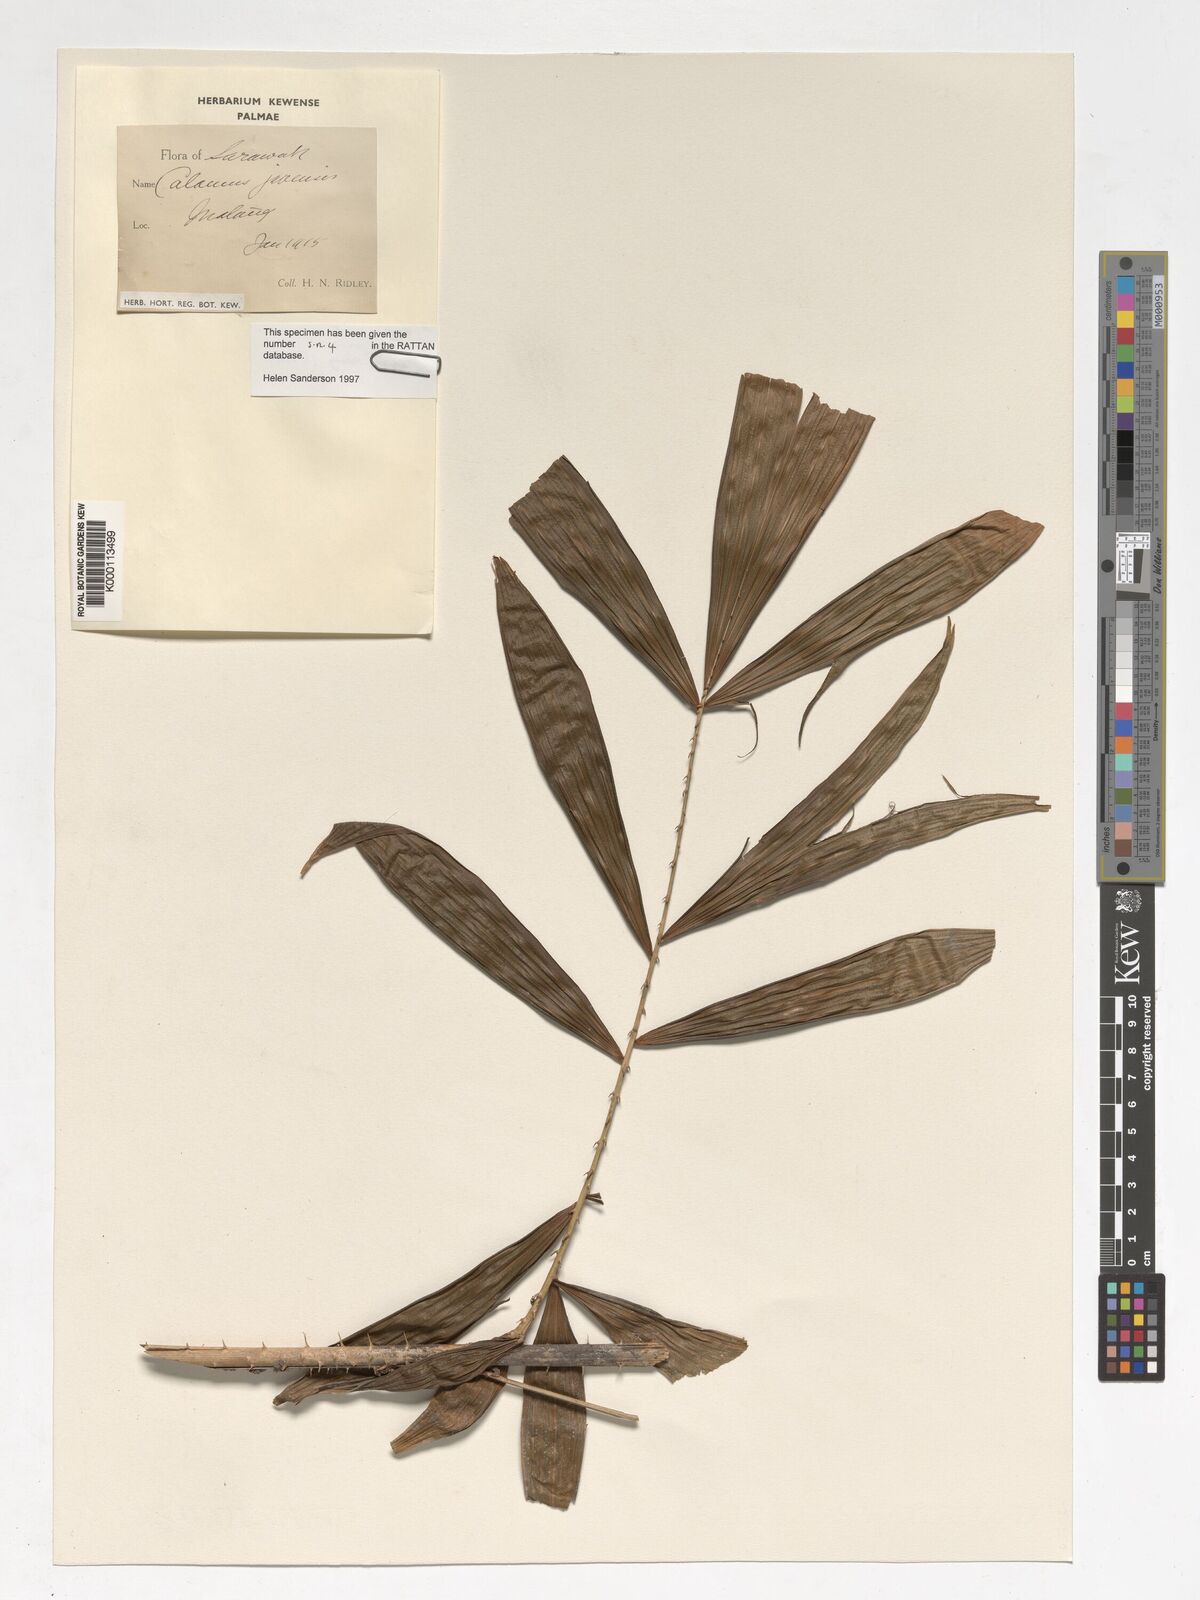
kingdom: Plantae
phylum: Tracheophyta
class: Liliopsida
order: Arecales
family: Arecaceae
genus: Calamus
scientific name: Calamus javensis
